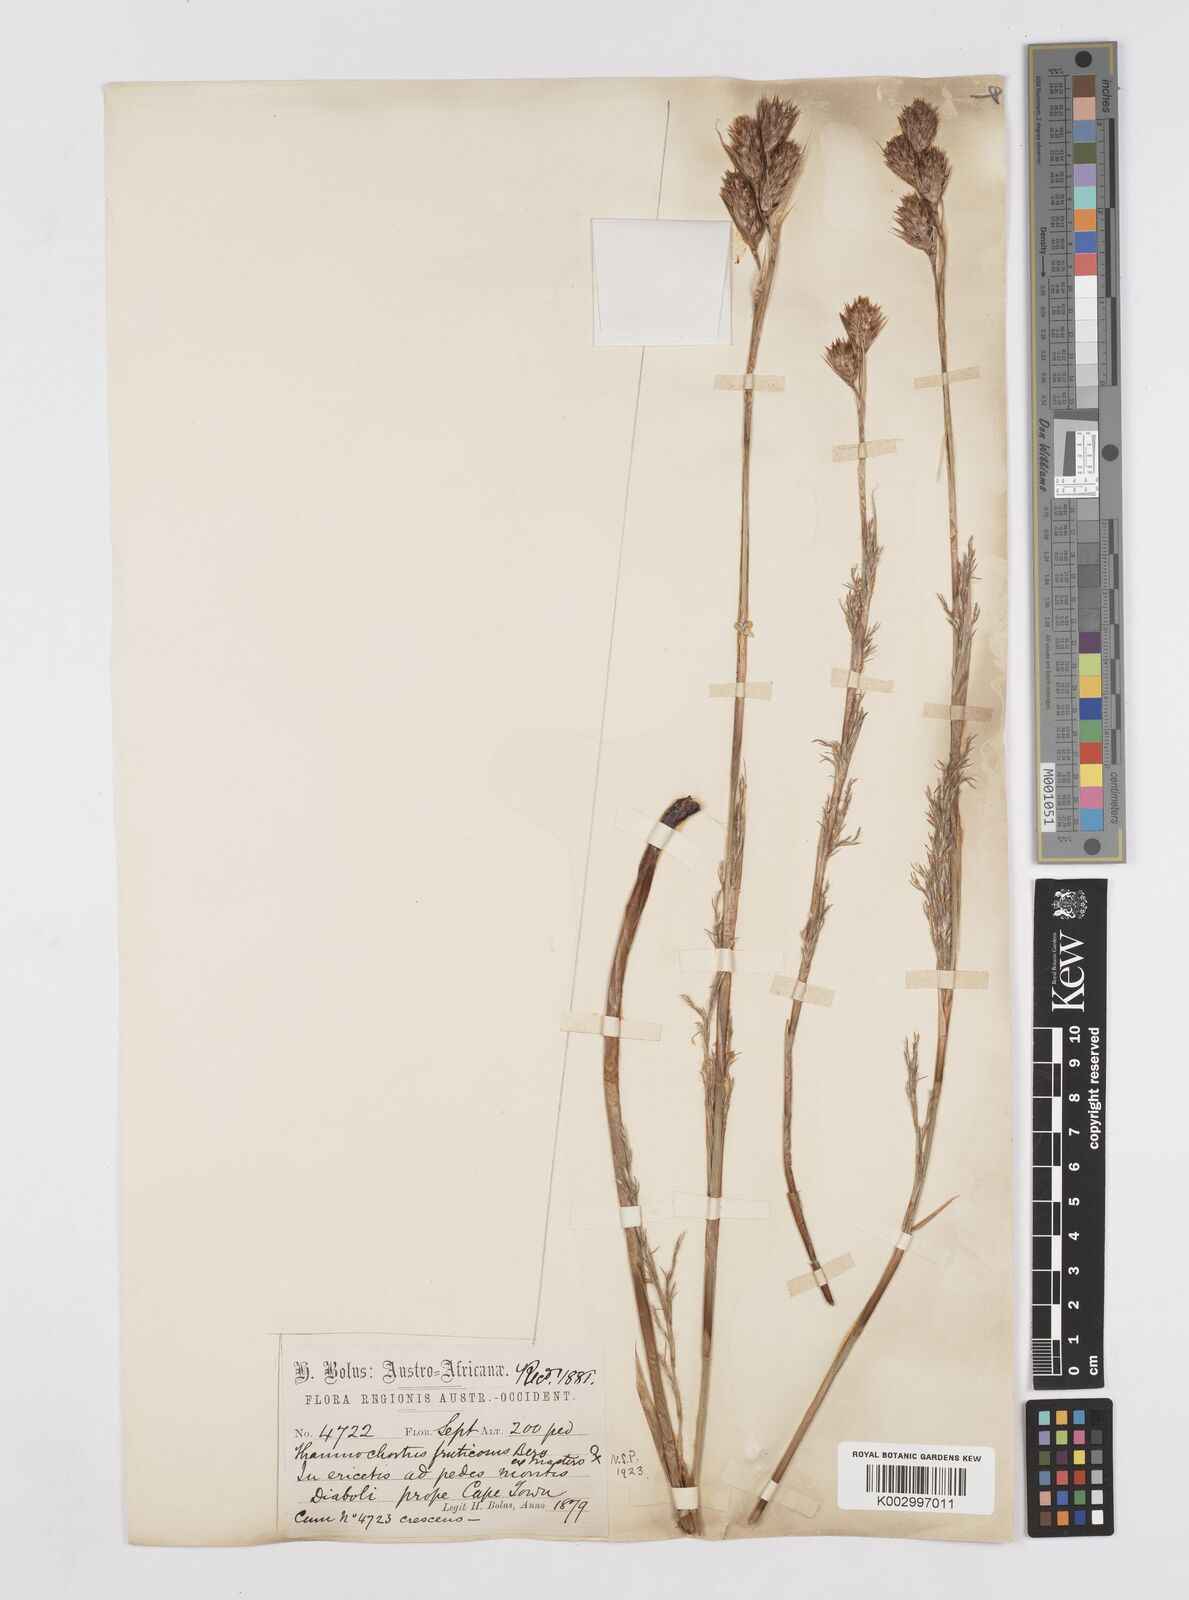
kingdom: Plantae
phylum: Tracheophyta
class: Liliopsida
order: Poales
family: Restionaceae
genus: Thamnochortus
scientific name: Thamnochortus fruticosus
